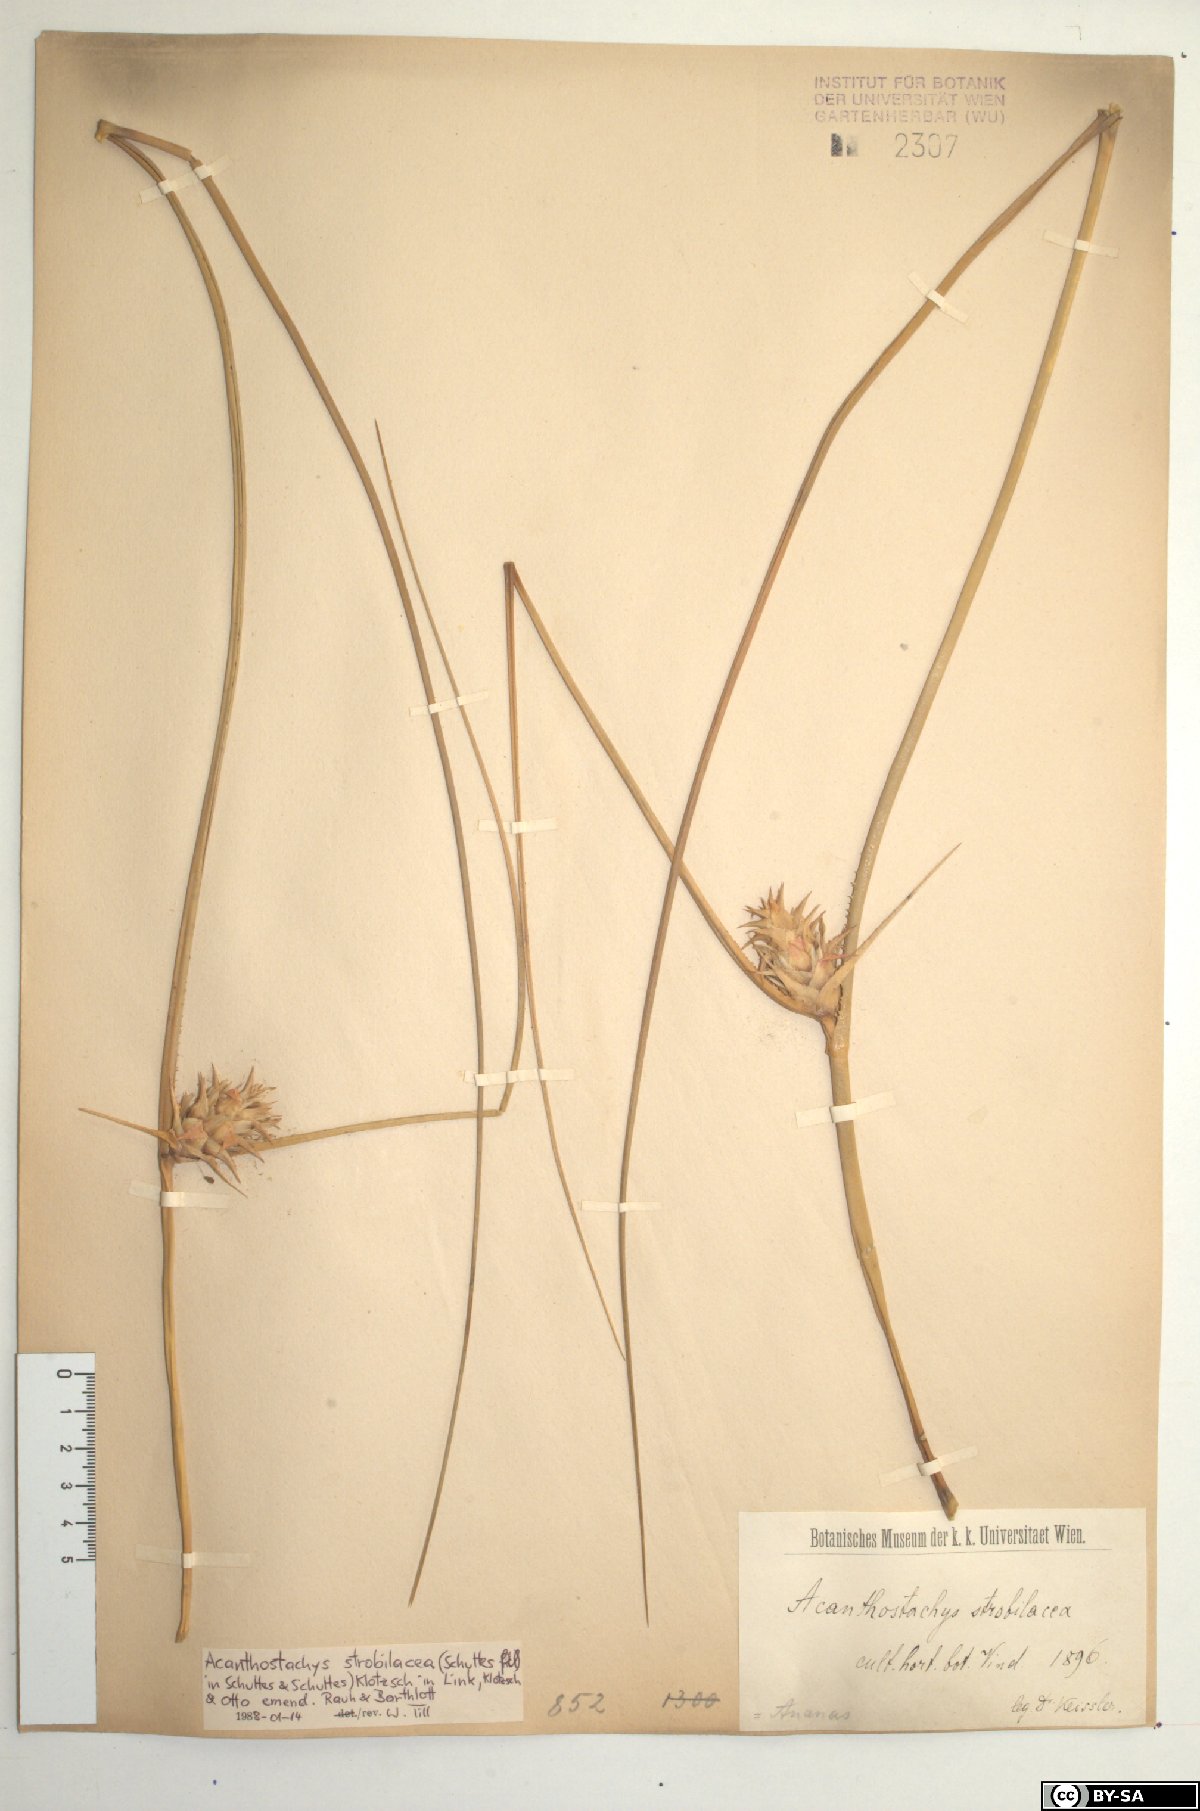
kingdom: Plantae
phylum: Tracheophyta
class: Liliopsida
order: Poales
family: Bromeliaceae
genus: Acanthostachys
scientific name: Acanthostachys strobilacea
